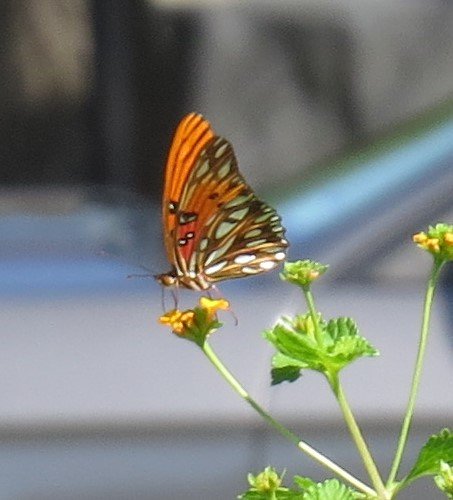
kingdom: Animalia
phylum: Arthropoda
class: Insecta
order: Lepidoptera
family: Nymphalidae
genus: Junonia
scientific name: Junonia coenia
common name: Common Buckeye
